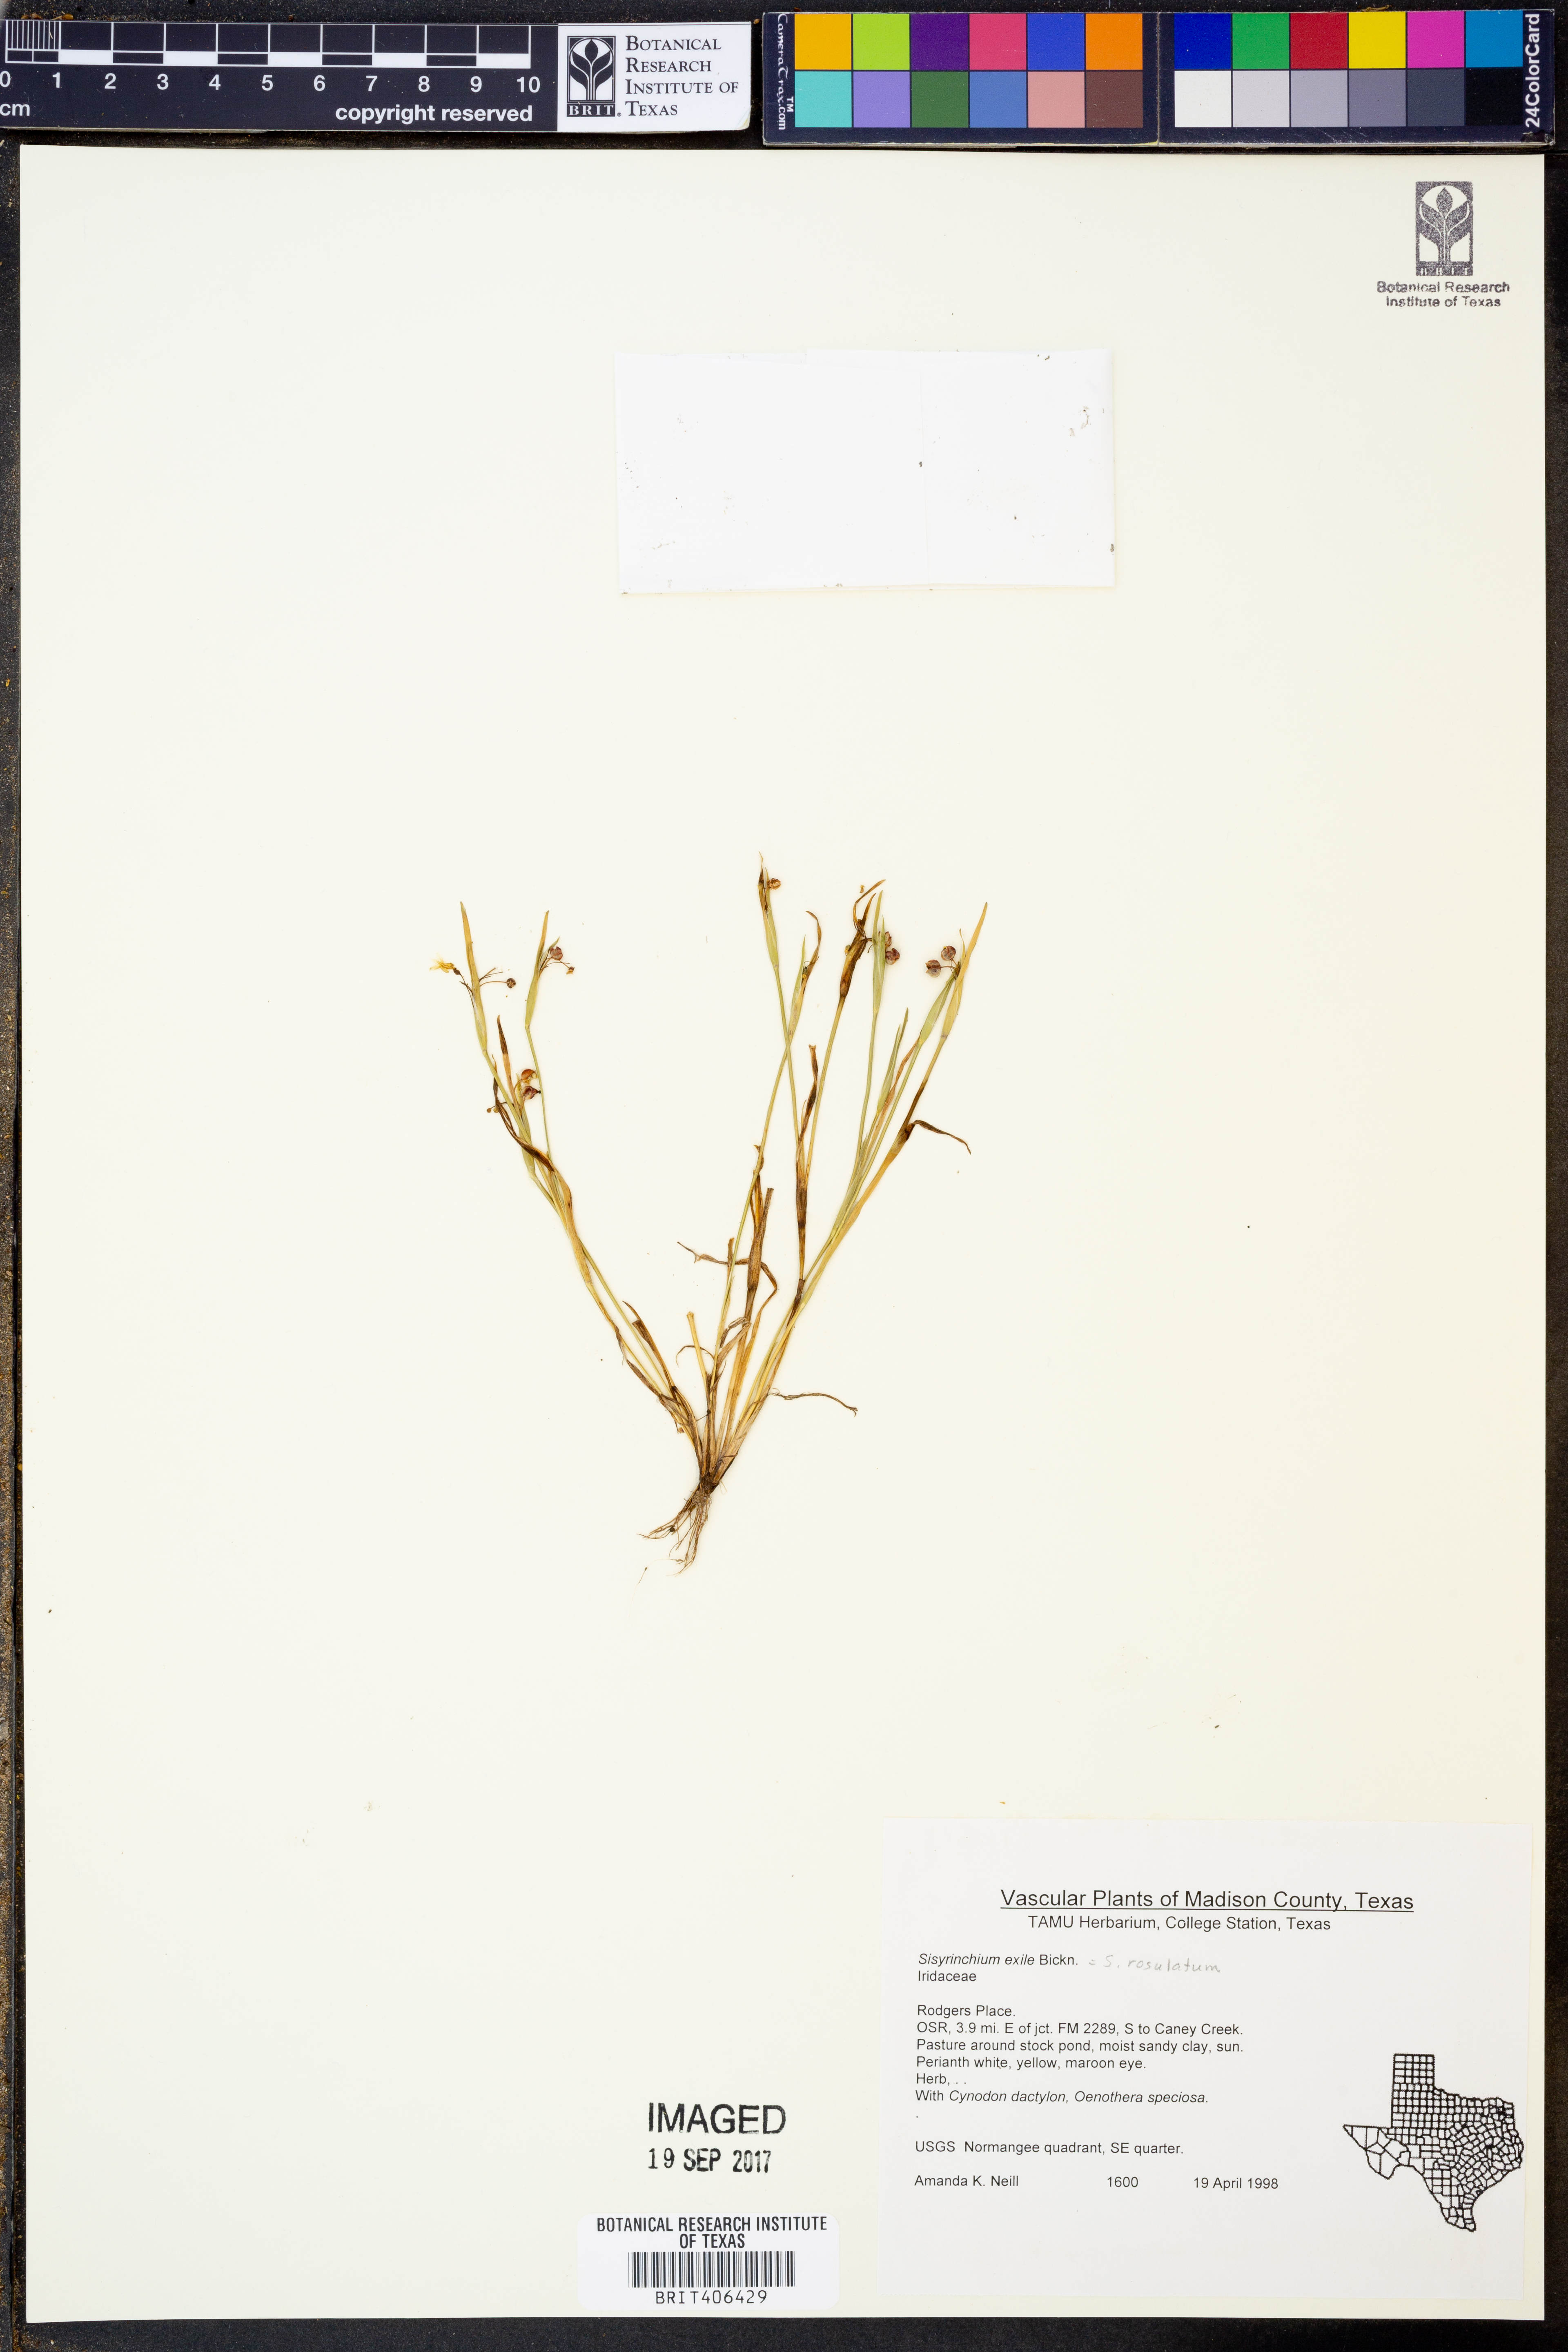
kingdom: Plantae
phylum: Tracheophyta
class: Liliopsida
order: Asparagales
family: Iridaceae
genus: Sisyrinchium
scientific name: Sisyrinchium rosulatum
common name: Annual blue-eyed grass
